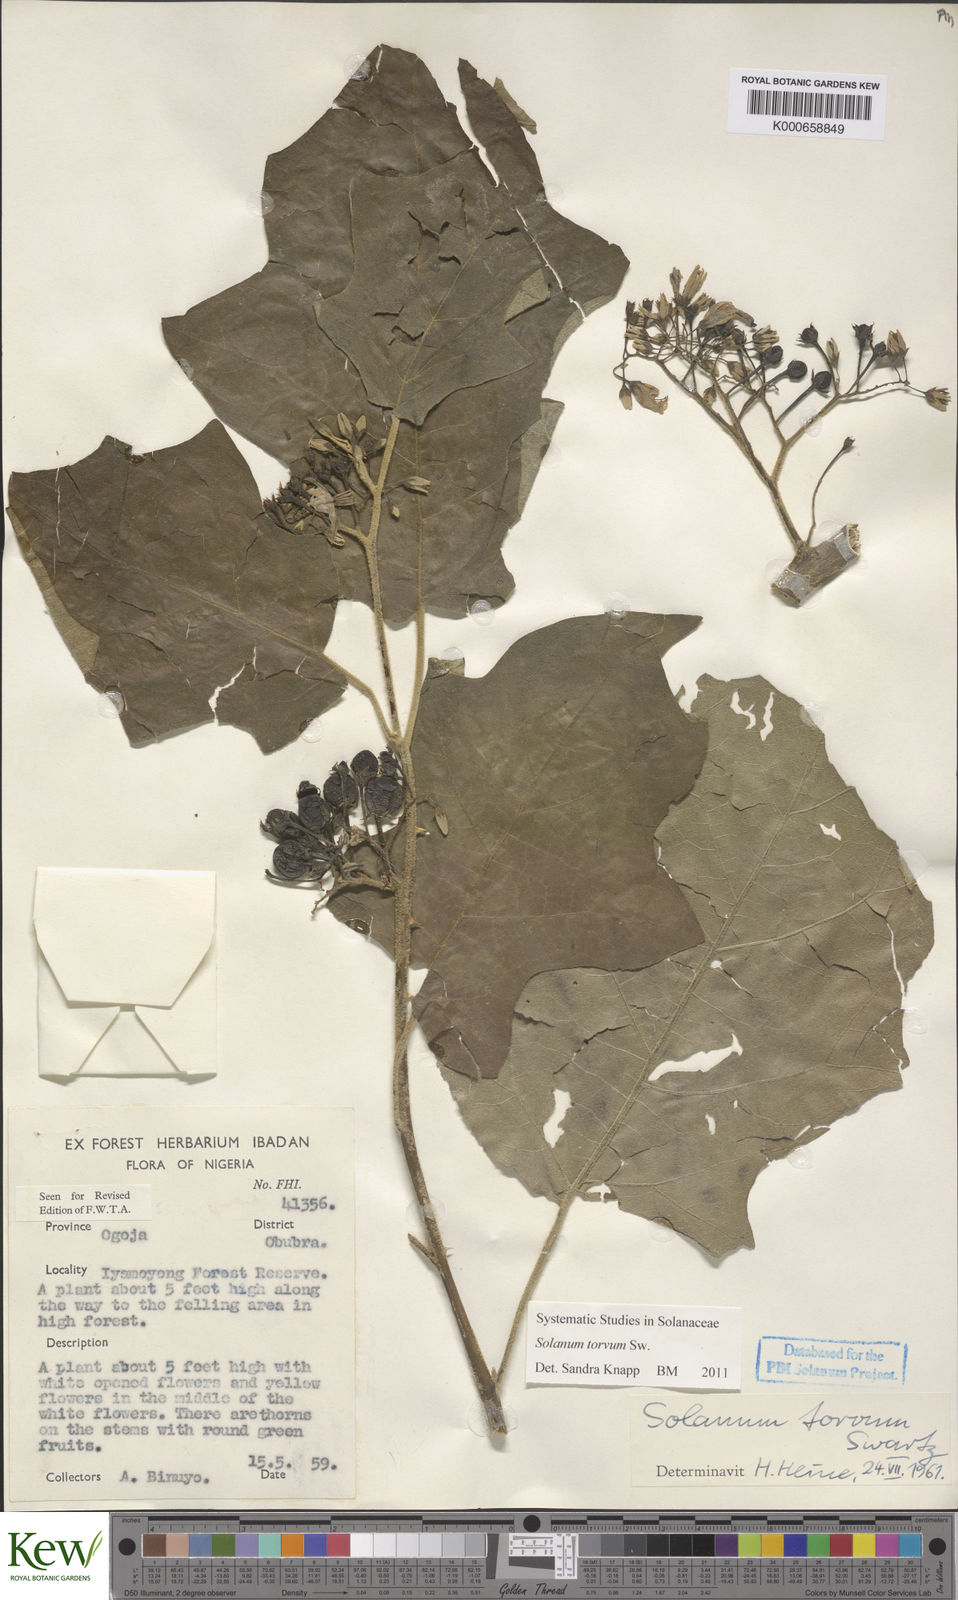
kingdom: Plantae
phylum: Tracheophyta
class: Magnoliopsida
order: Solanales
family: Solanaceae
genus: Solanum
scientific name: Solanum torvum
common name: Turkey berry
